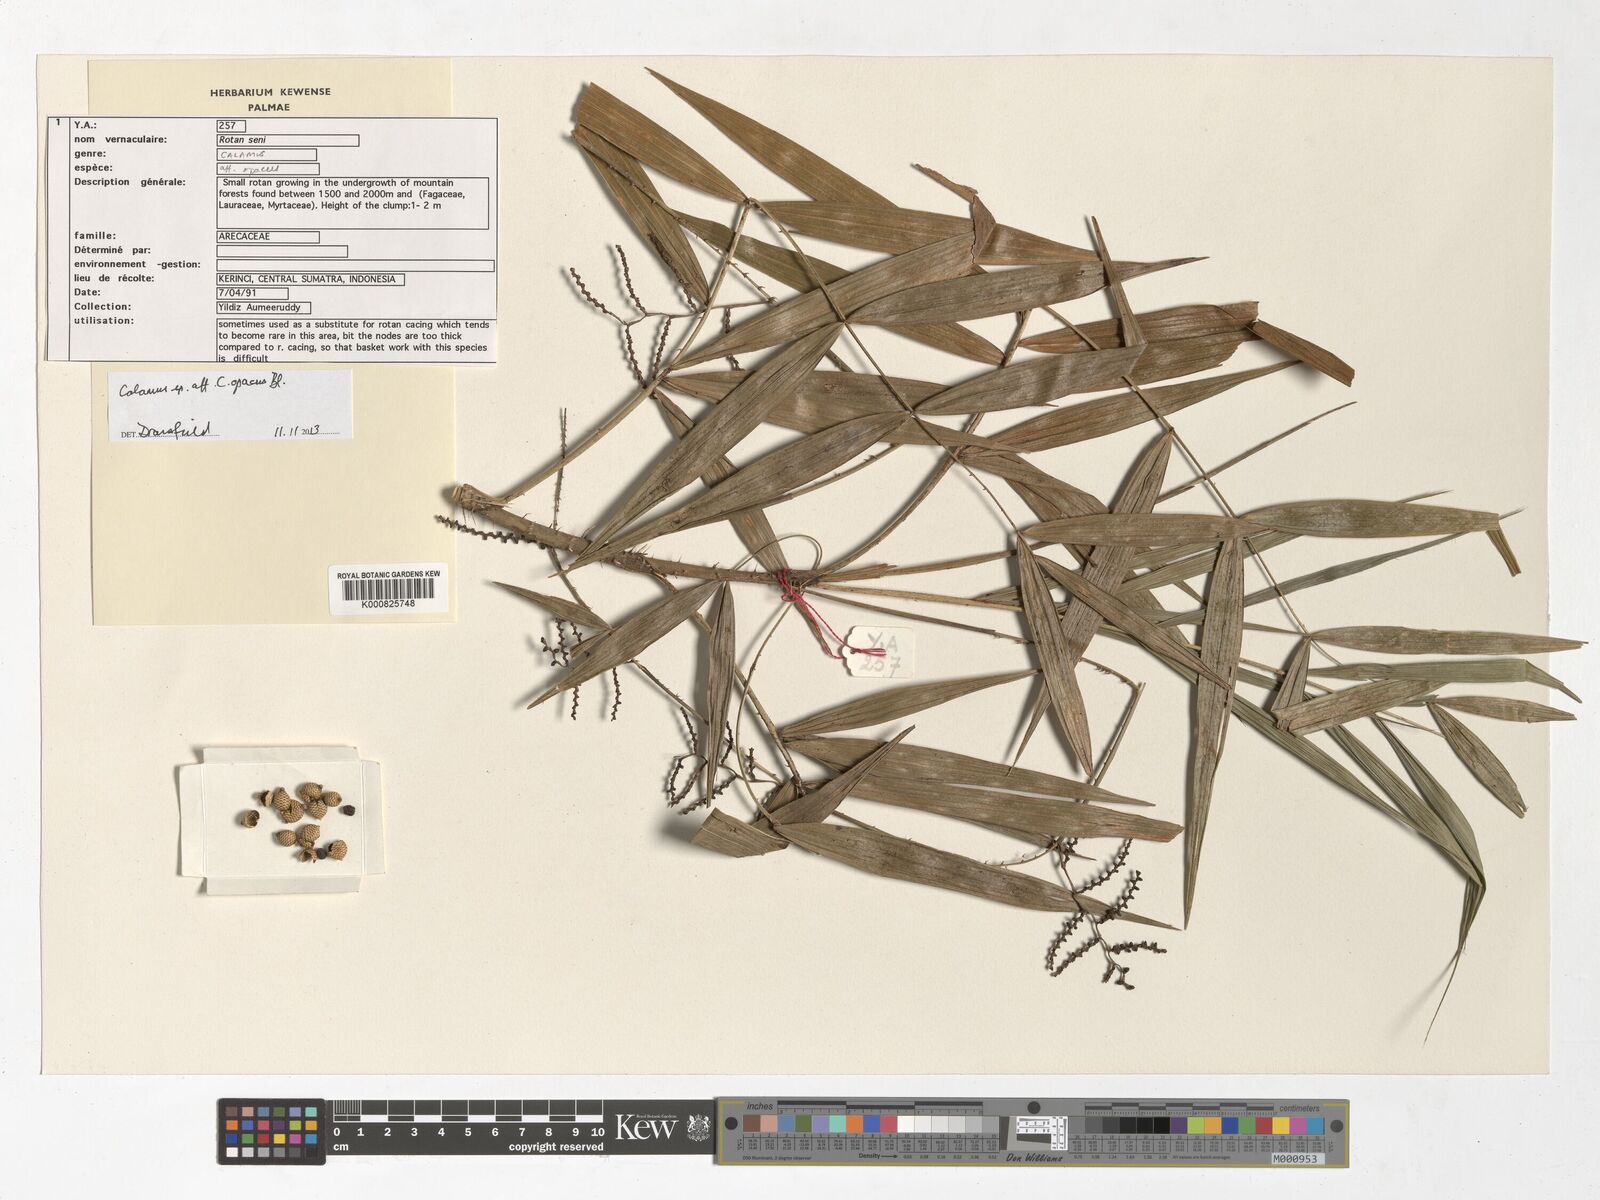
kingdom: Plantae
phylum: Tracheophyta
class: Liliopsida
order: Arecales
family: Arecaceae
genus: Calamus
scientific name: Calamus heteroideus
